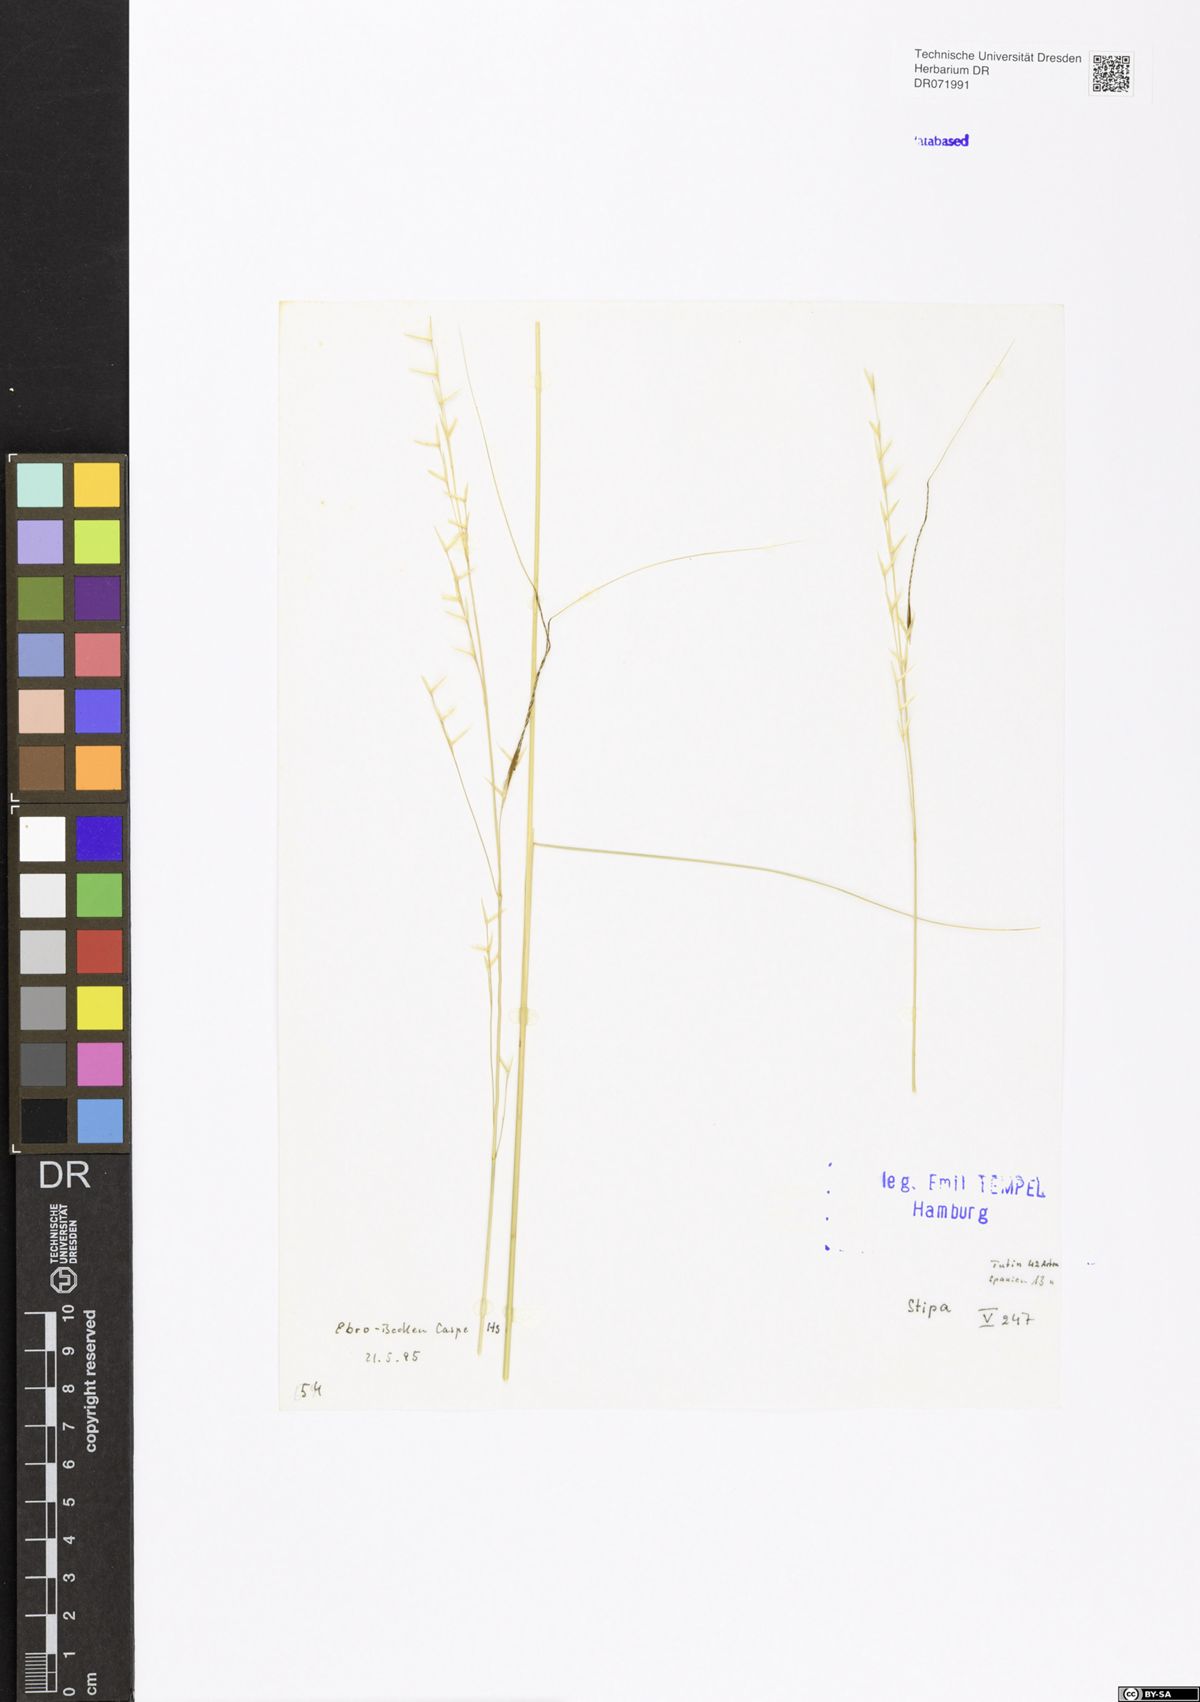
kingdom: Plantae
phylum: Tracheophyta
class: Liliopsida
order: Poales
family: Poaceae
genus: Stipa
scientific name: Stipa
